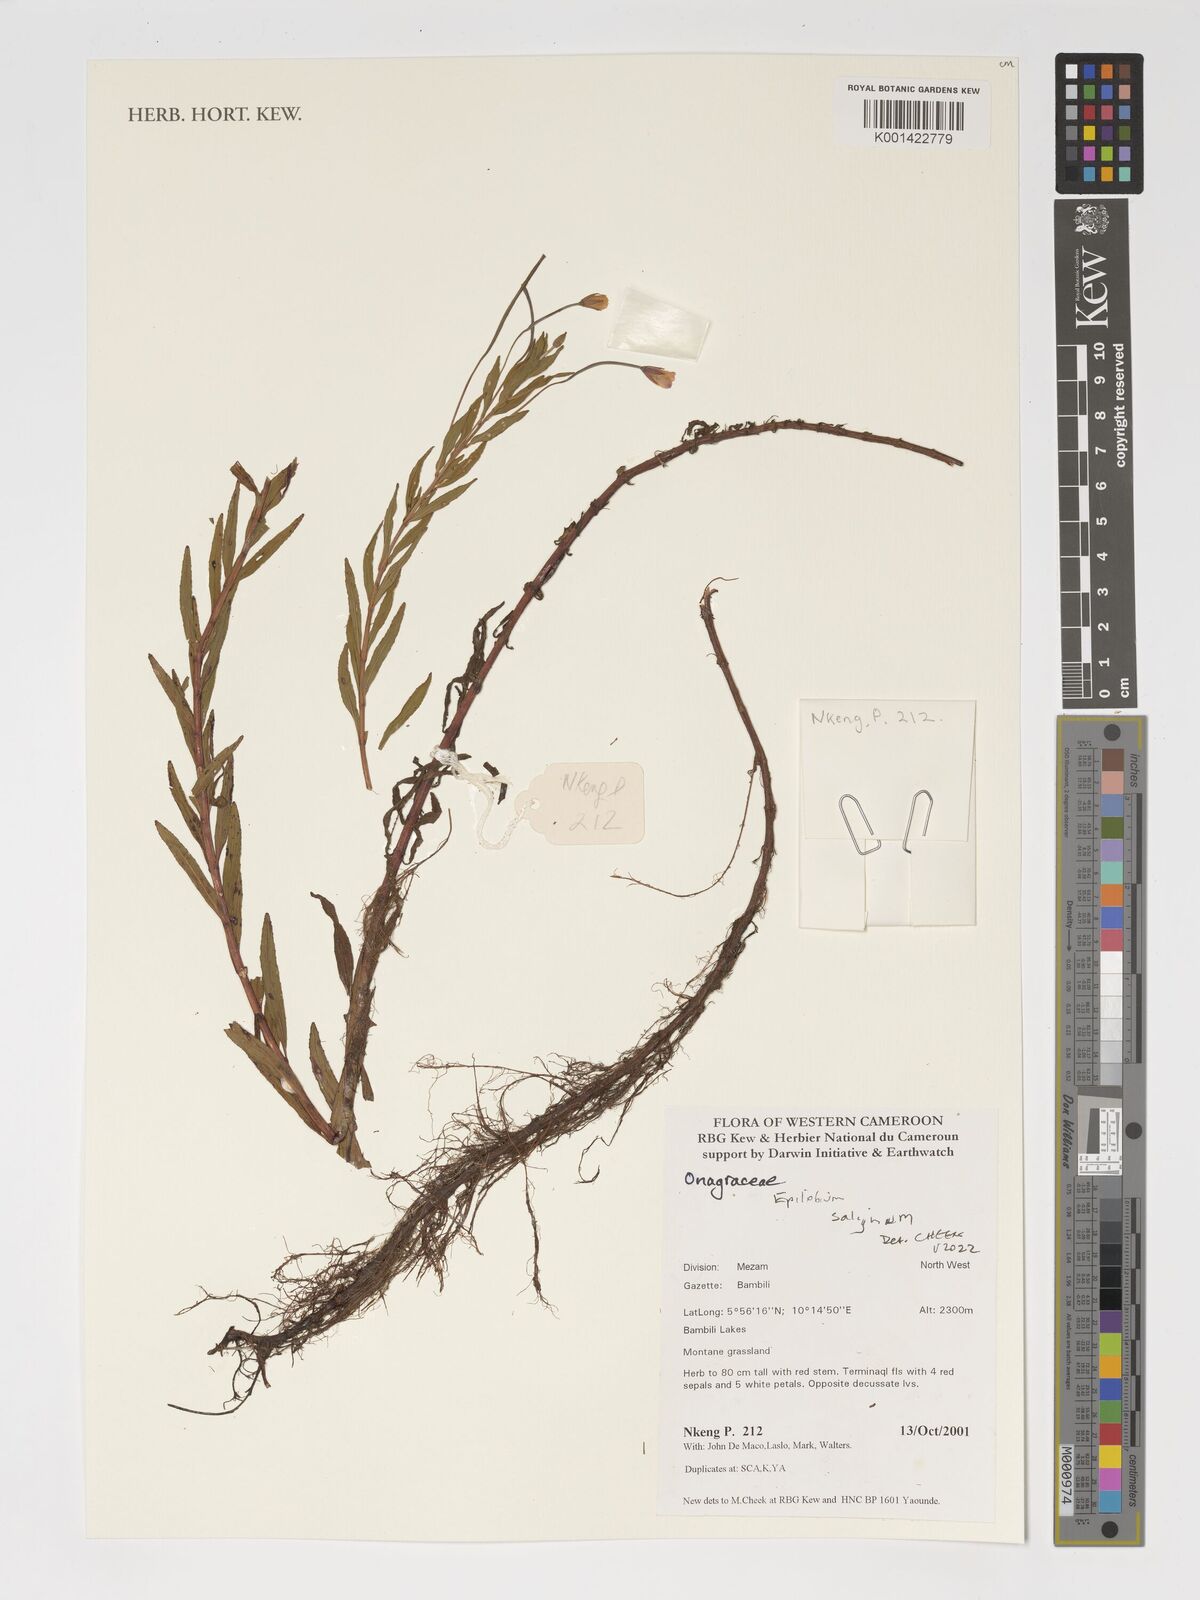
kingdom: Plantae
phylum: Tracheophyta
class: Magnoliopsida
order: Myrtales
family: Onagraceae
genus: Epilobium
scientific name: Epilobium salignum
